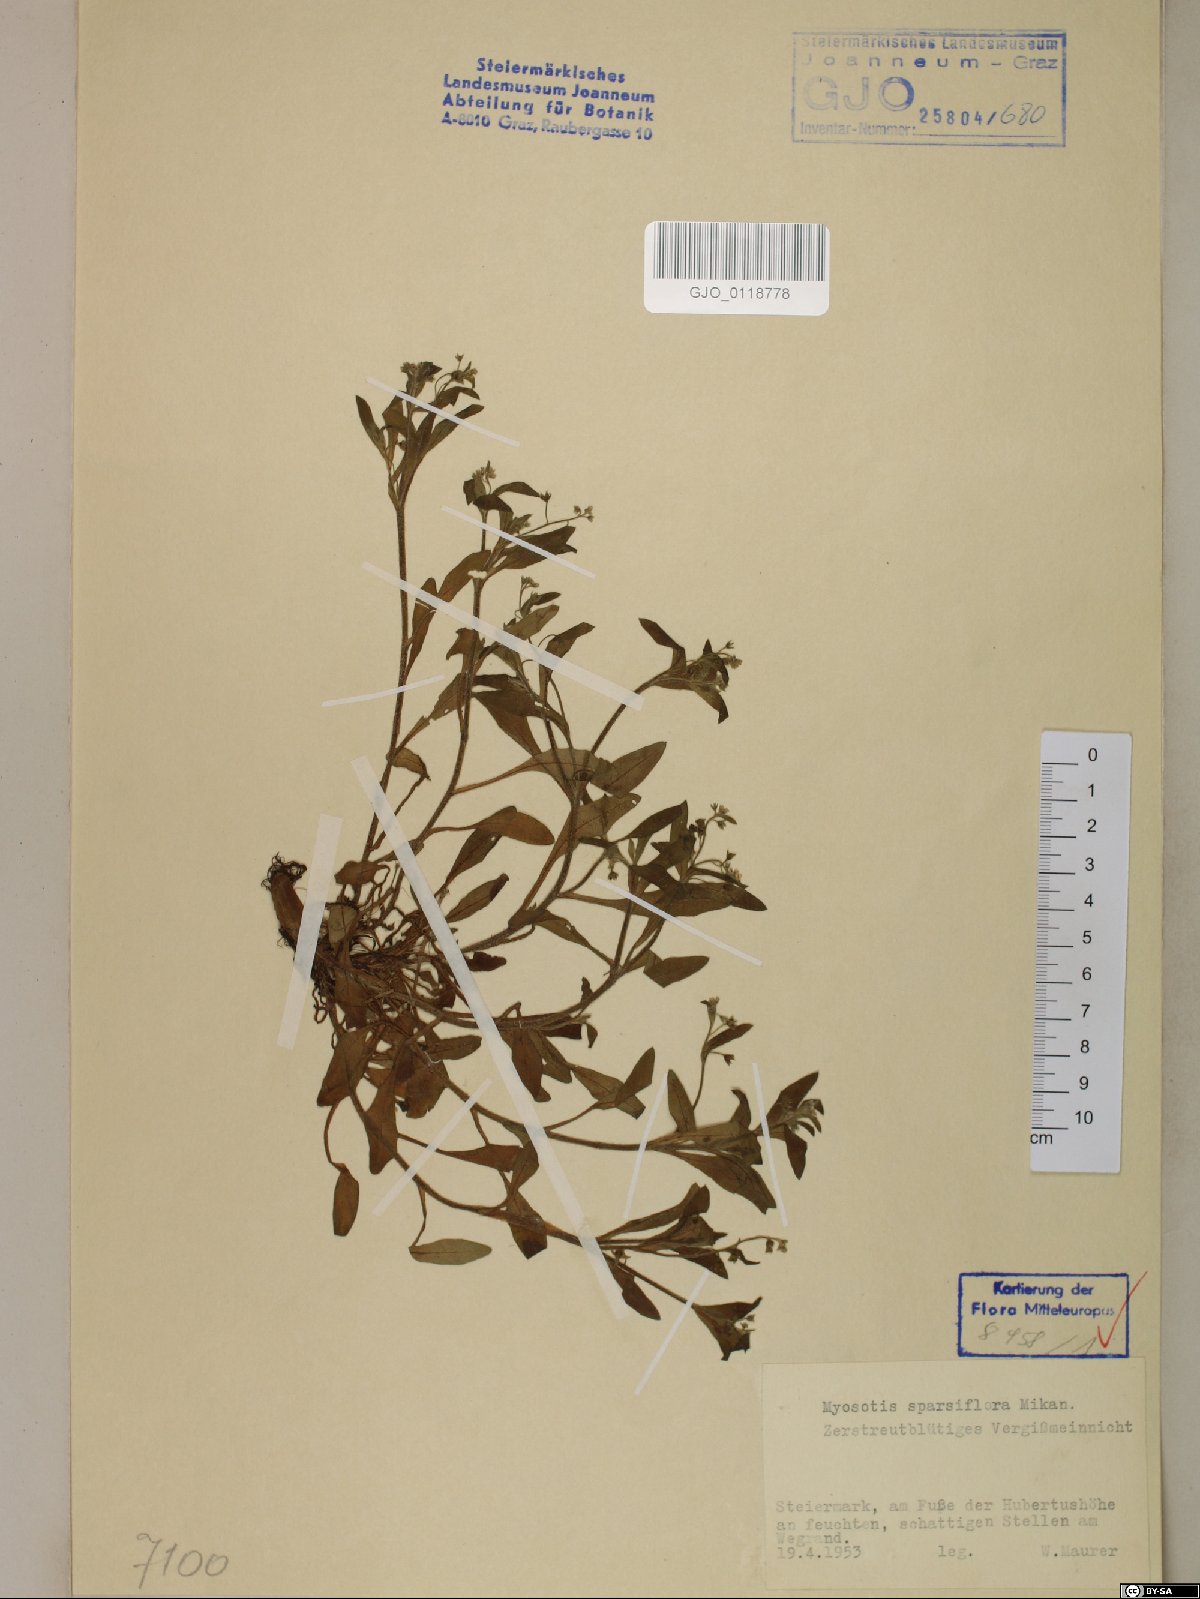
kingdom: Plantae
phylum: Tracheophyta
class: Magnoliopsida
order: Boraginales
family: Boraginaceae
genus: Myosotis
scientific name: Myosotis sparsiflora
